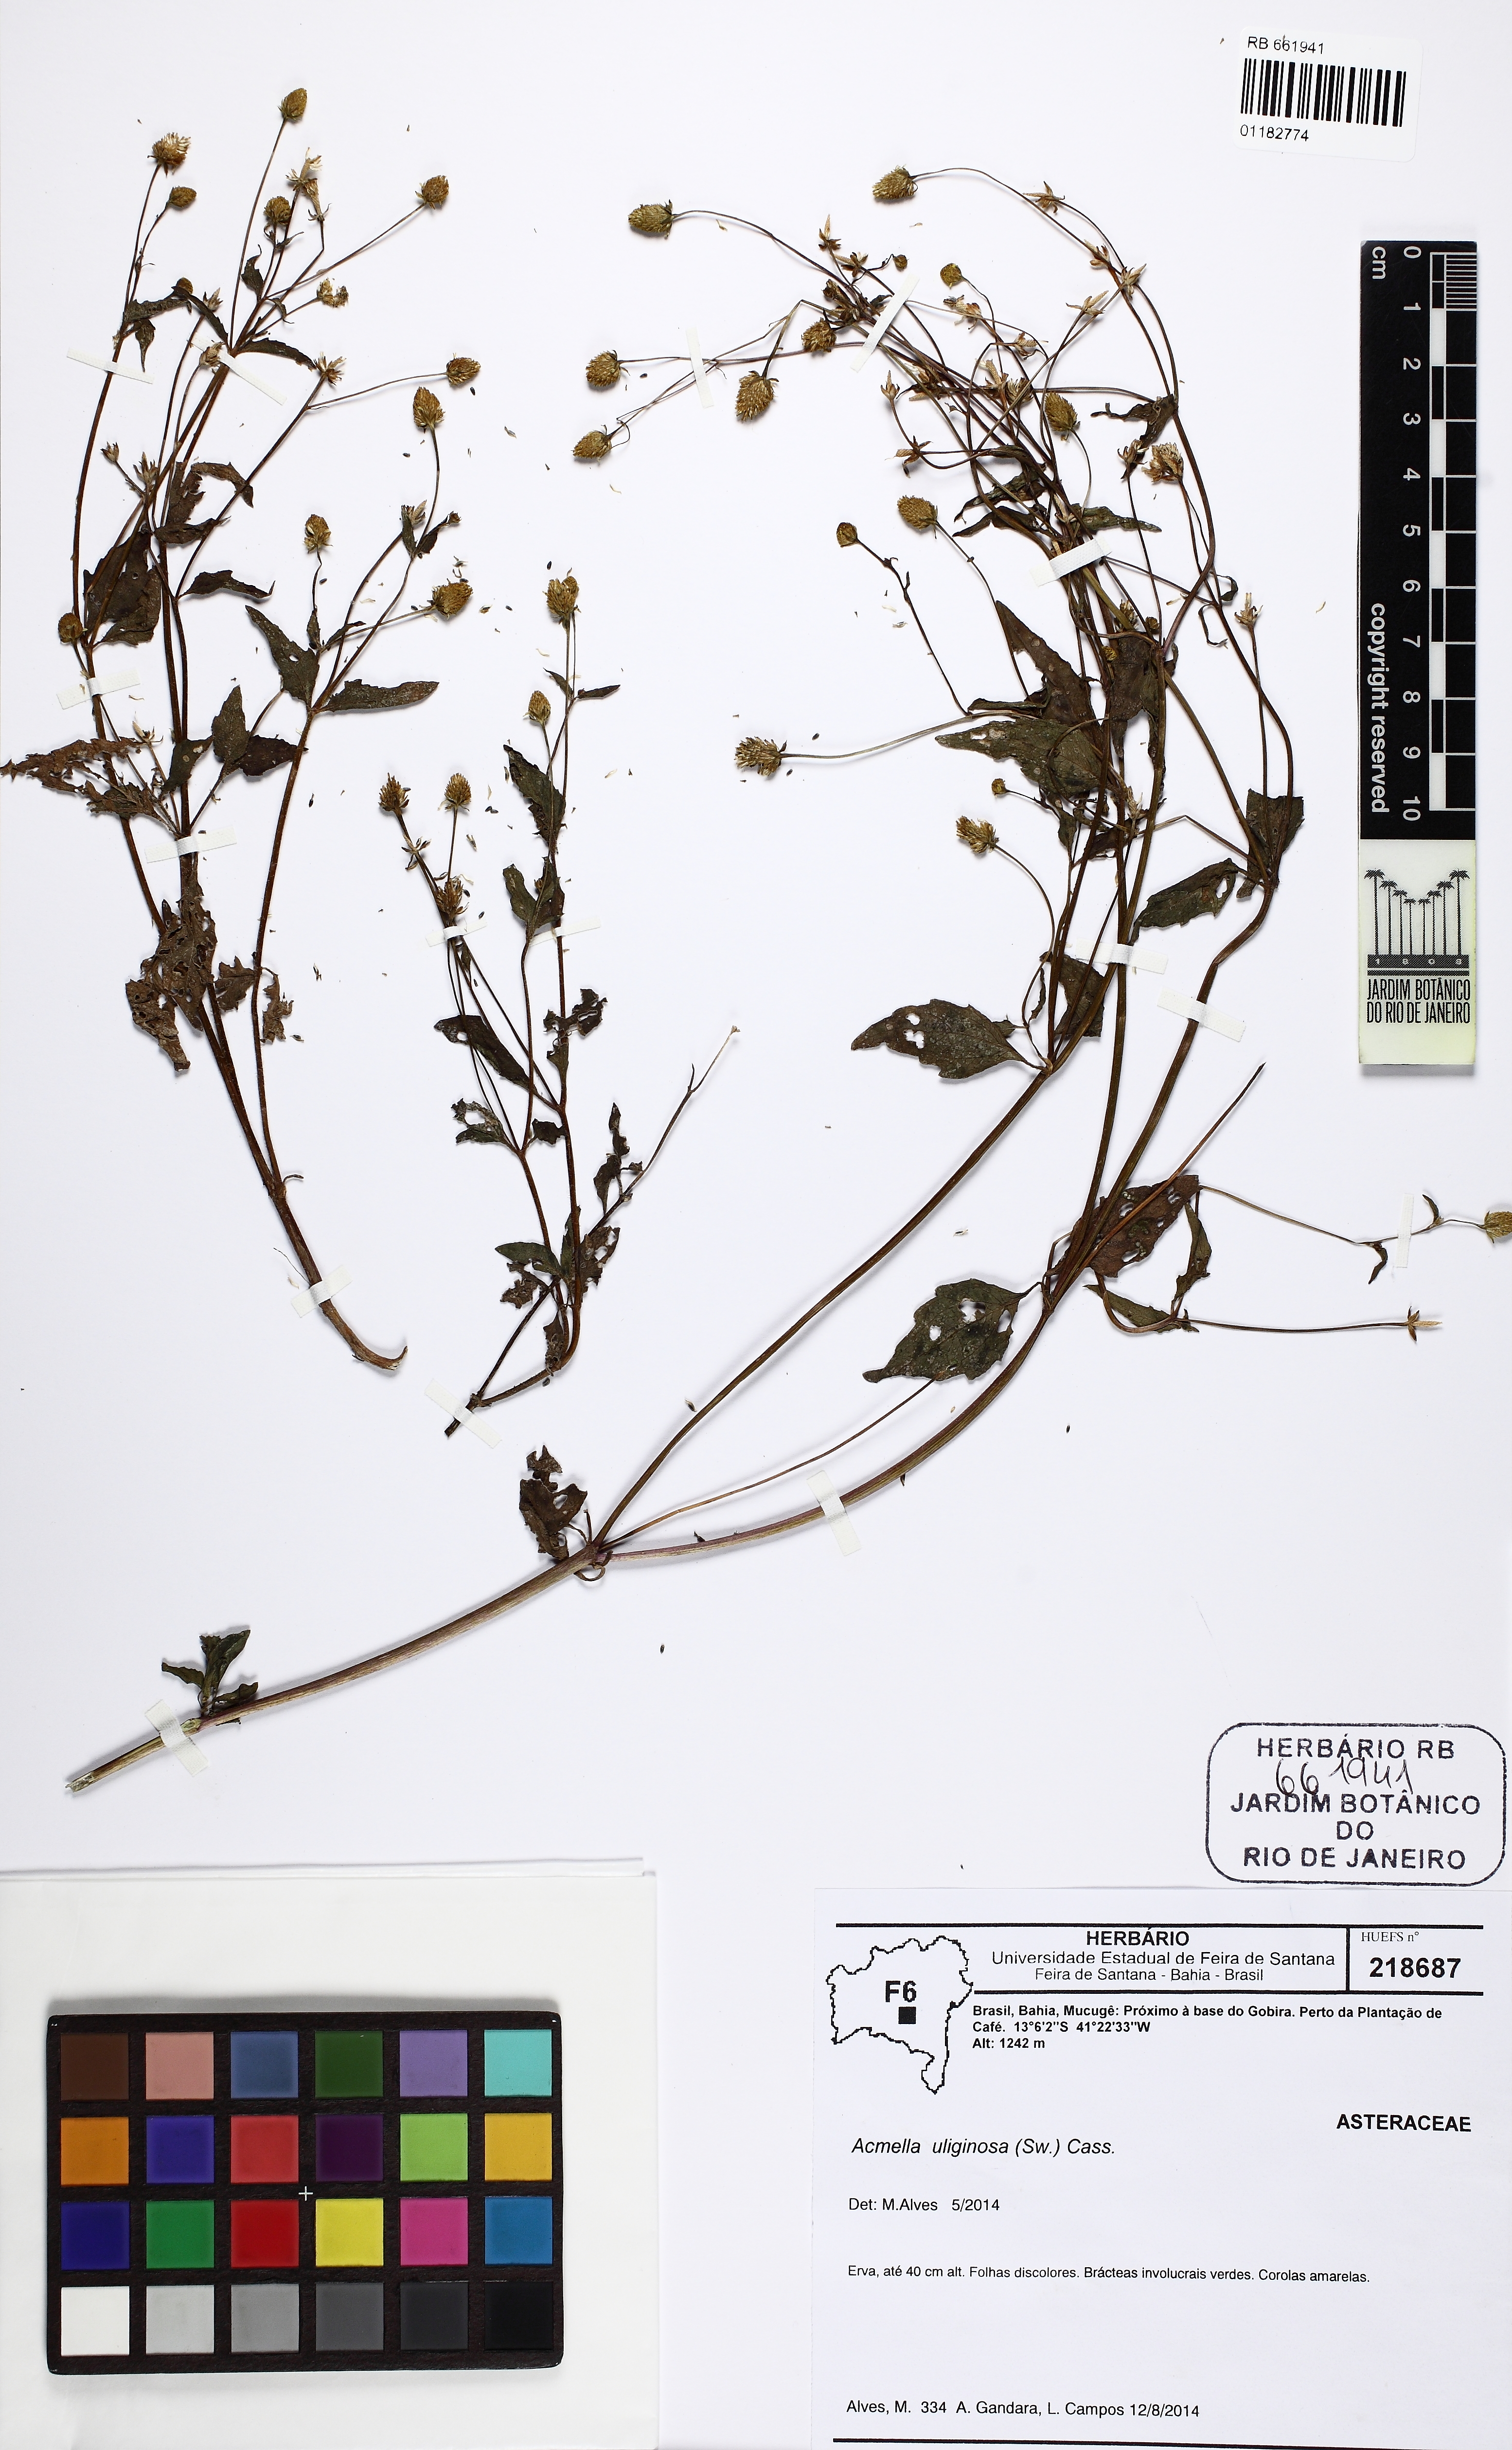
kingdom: Plantae
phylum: Tracheophyta
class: Magnoliopsida
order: Asterales
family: Asteraceae
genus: Acmella
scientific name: Acmella uliginosa
